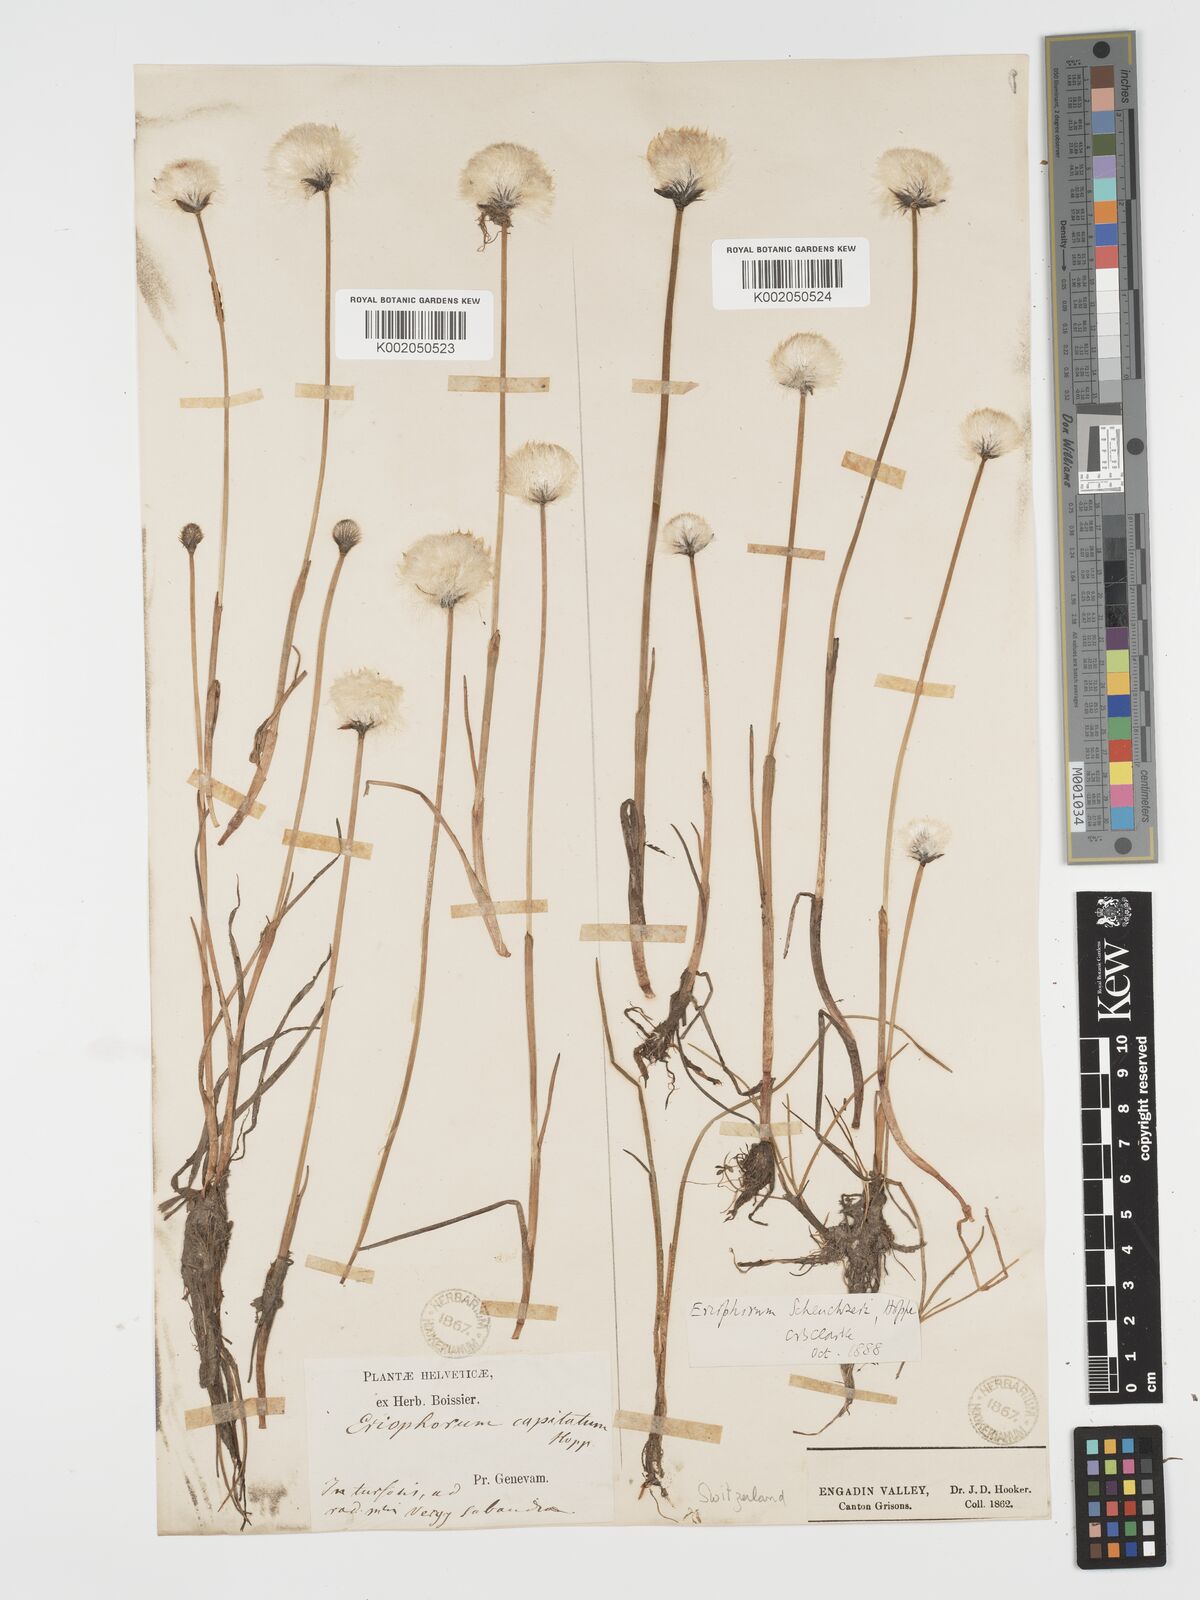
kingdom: Plantae
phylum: Tracheophyta
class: Liliopsida
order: Poales
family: Cyperaceae
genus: Eriophorum
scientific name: Eriophorum scheuchzeri
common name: Scheuchzer's cottongrass
